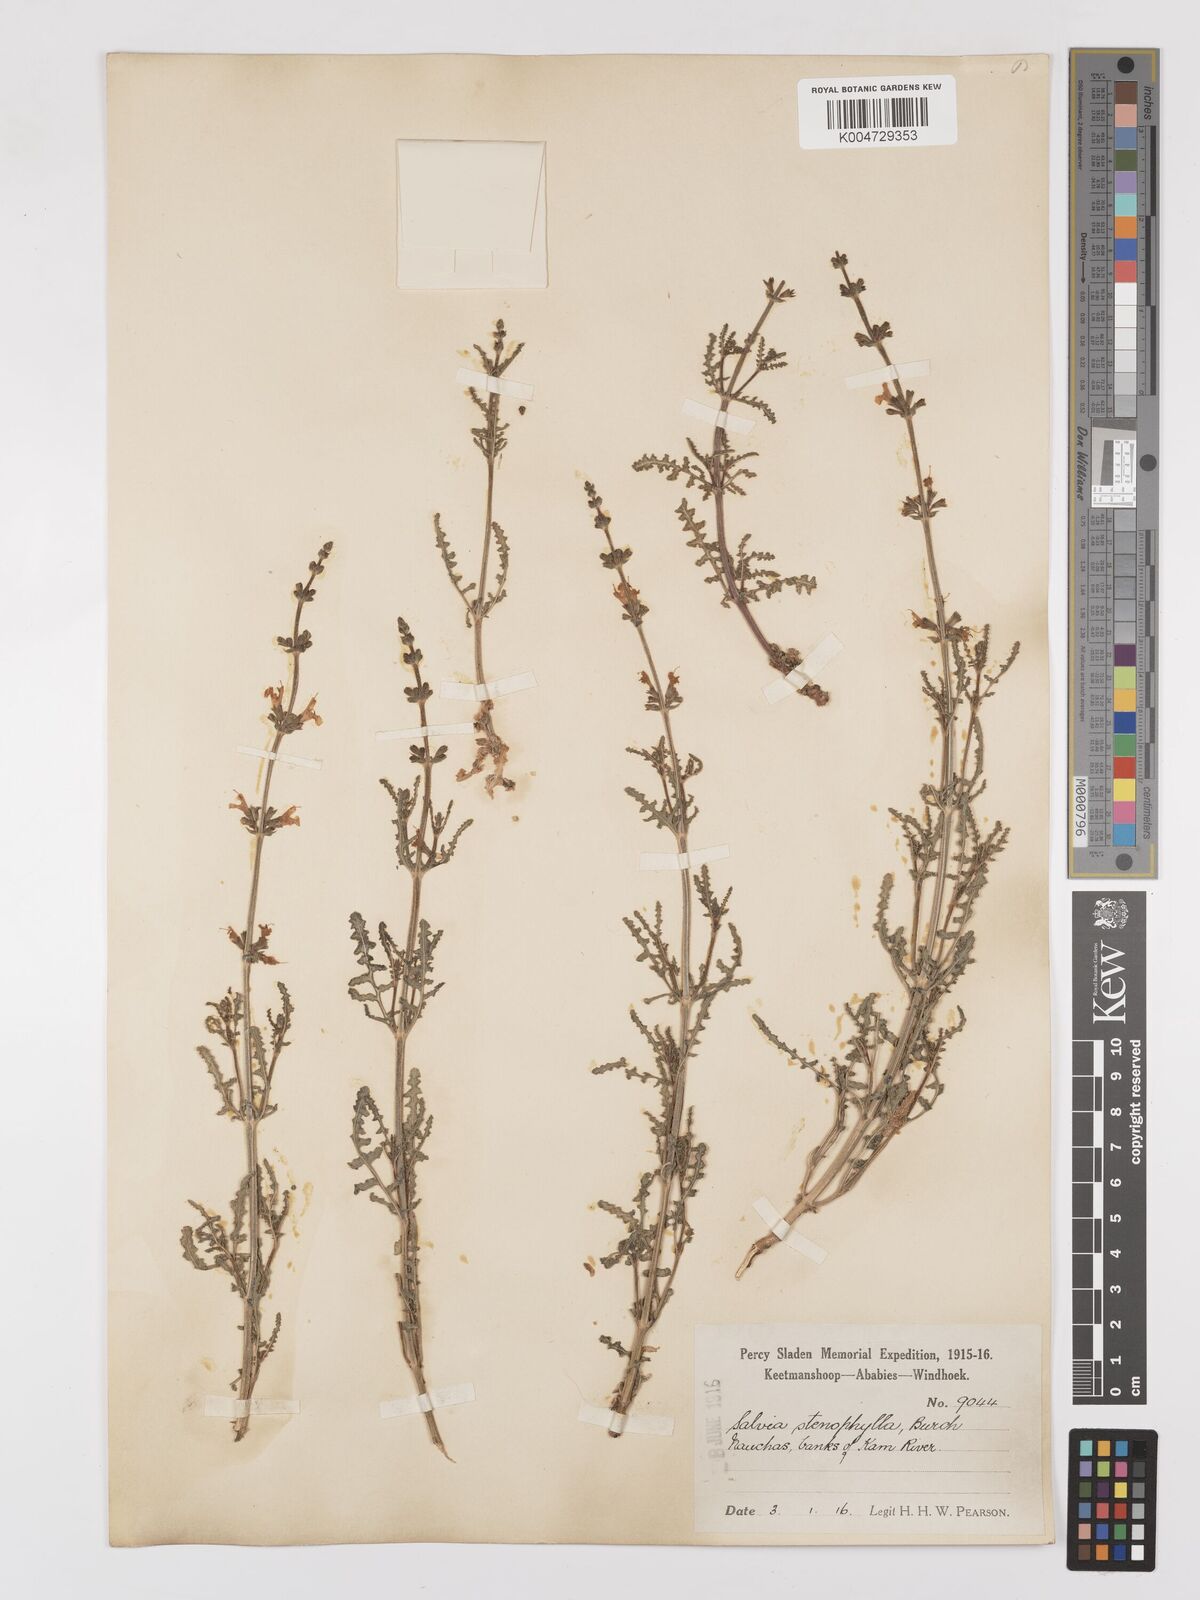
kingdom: Plantae
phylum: Tracheophyta
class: Magnoliopsida
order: Lamiales
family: Lamiaceae
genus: Salvia
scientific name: Salvia stenophylla
